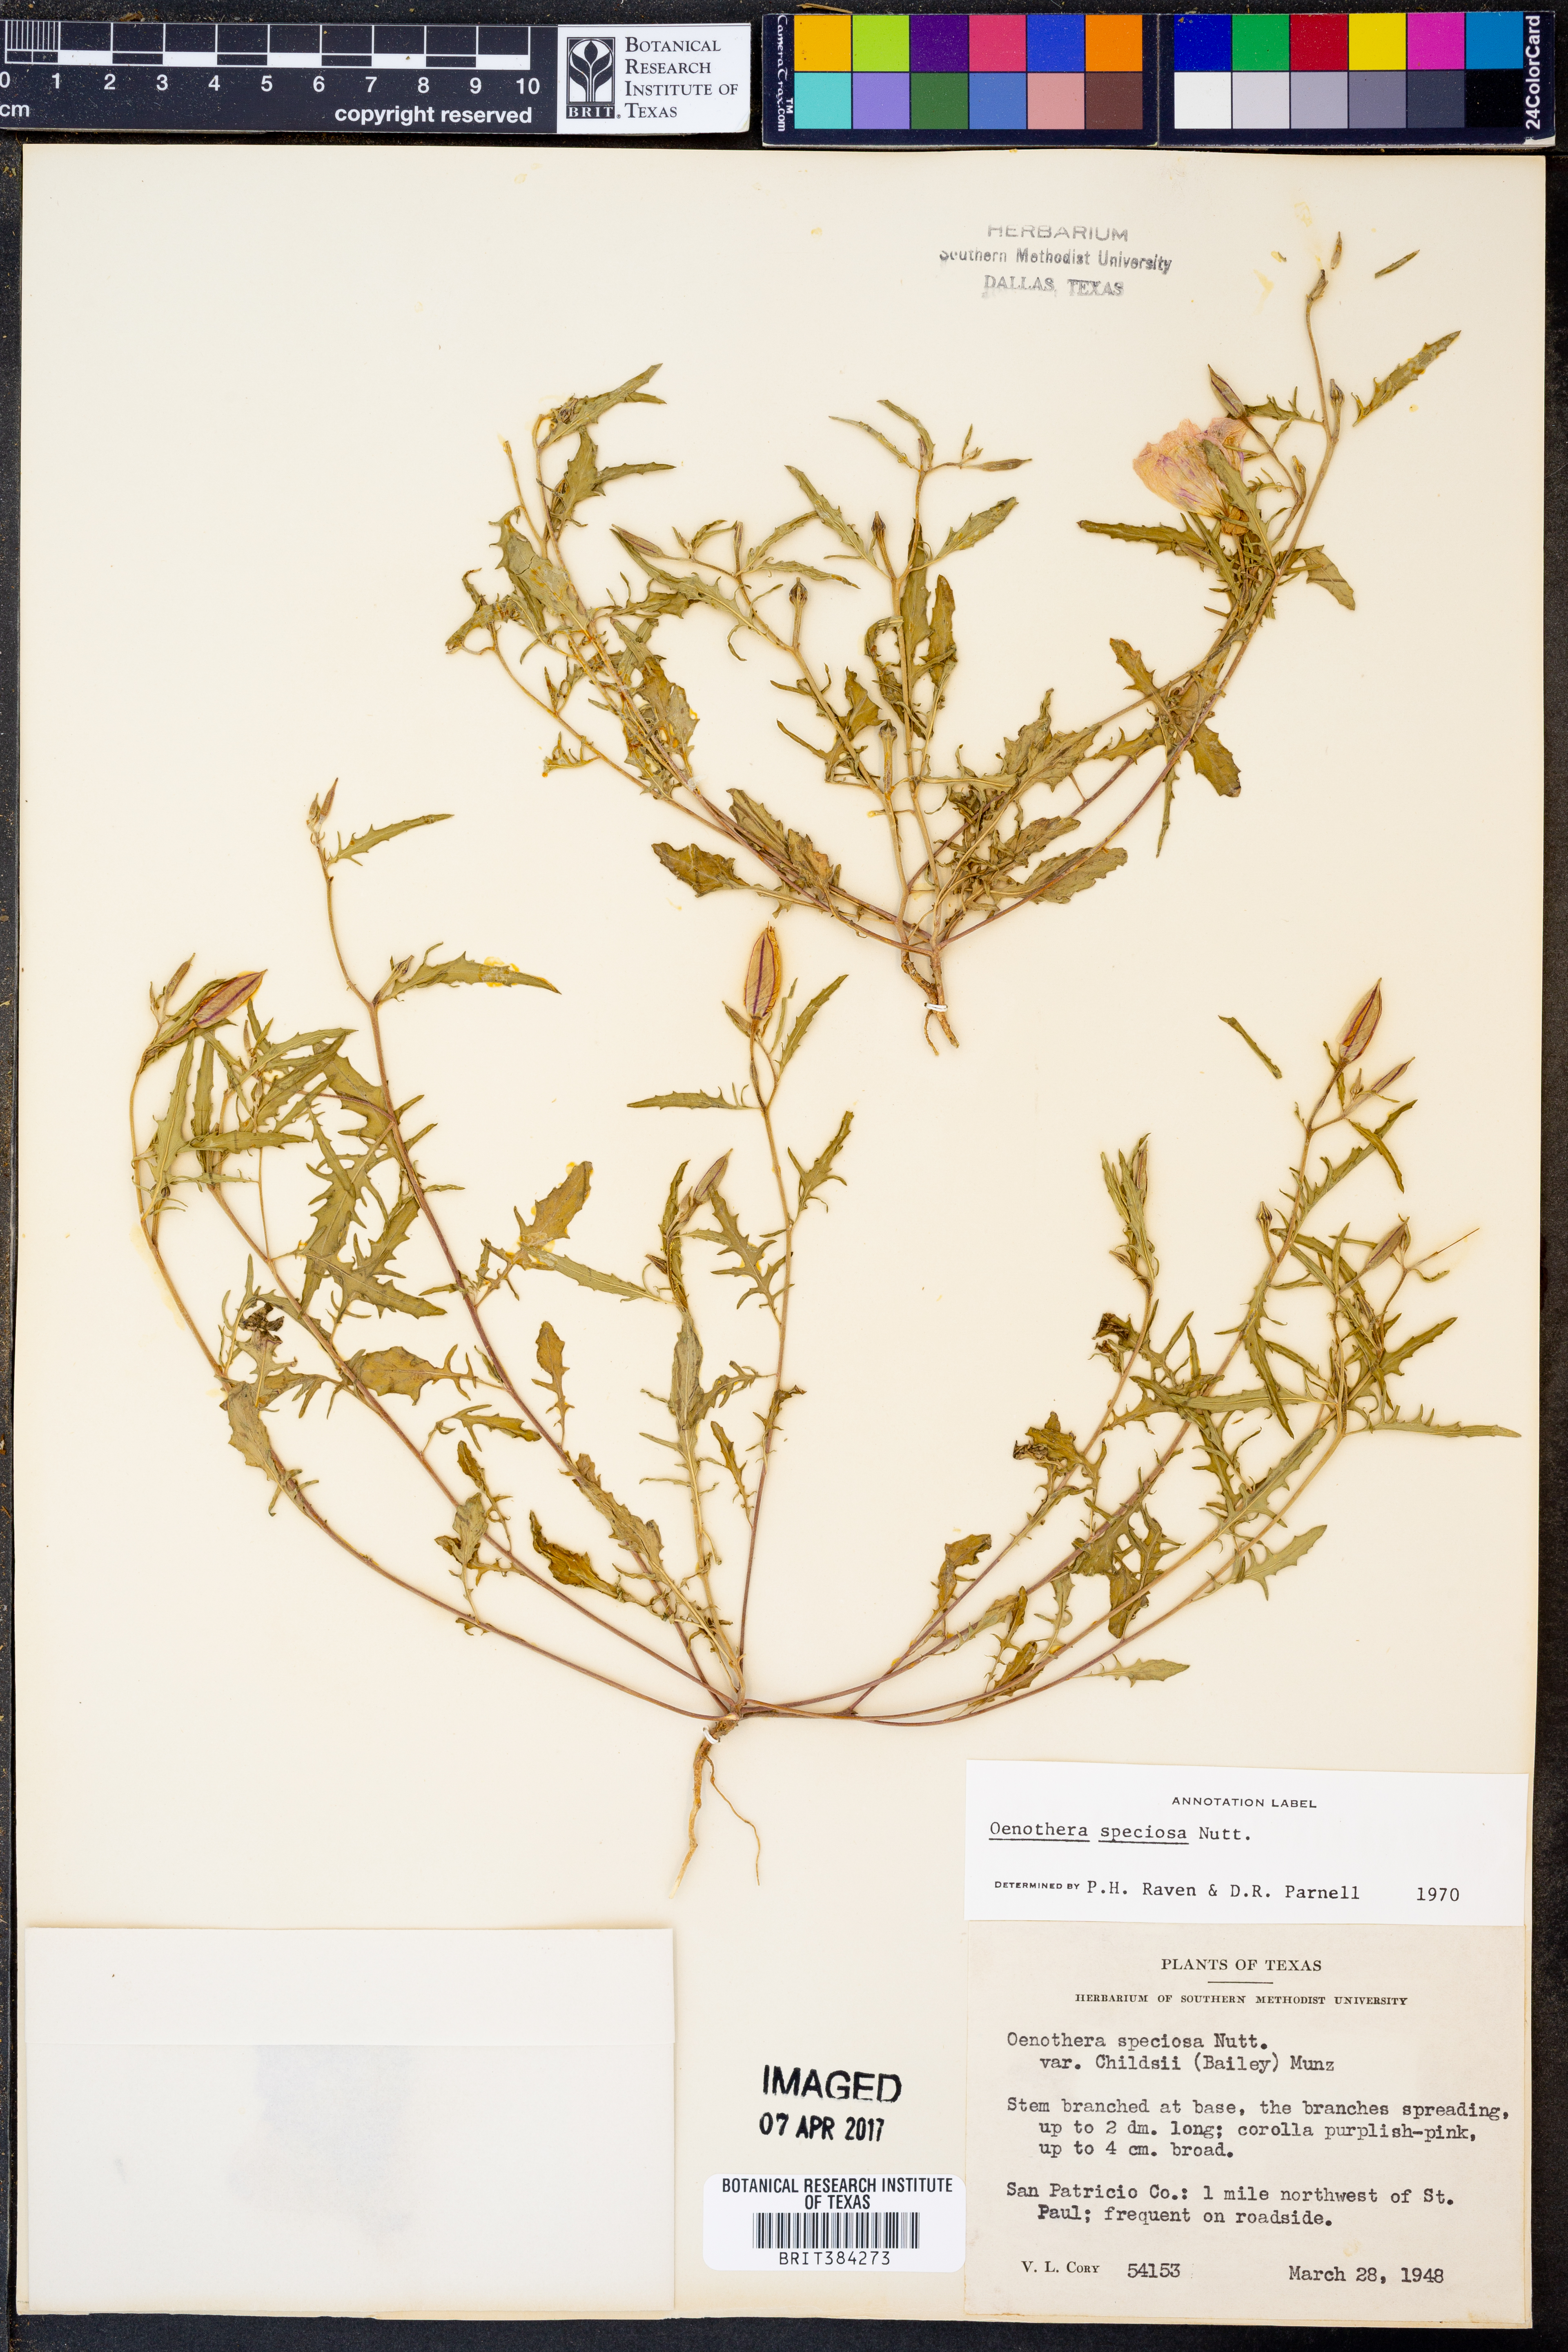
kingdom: Plantae
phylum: Tracheophyta
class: Magnoliopsida
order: Myrtales
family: Onagraceae
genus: Oenothera
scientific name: Oenothera speciosa
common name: White evening-primrose
